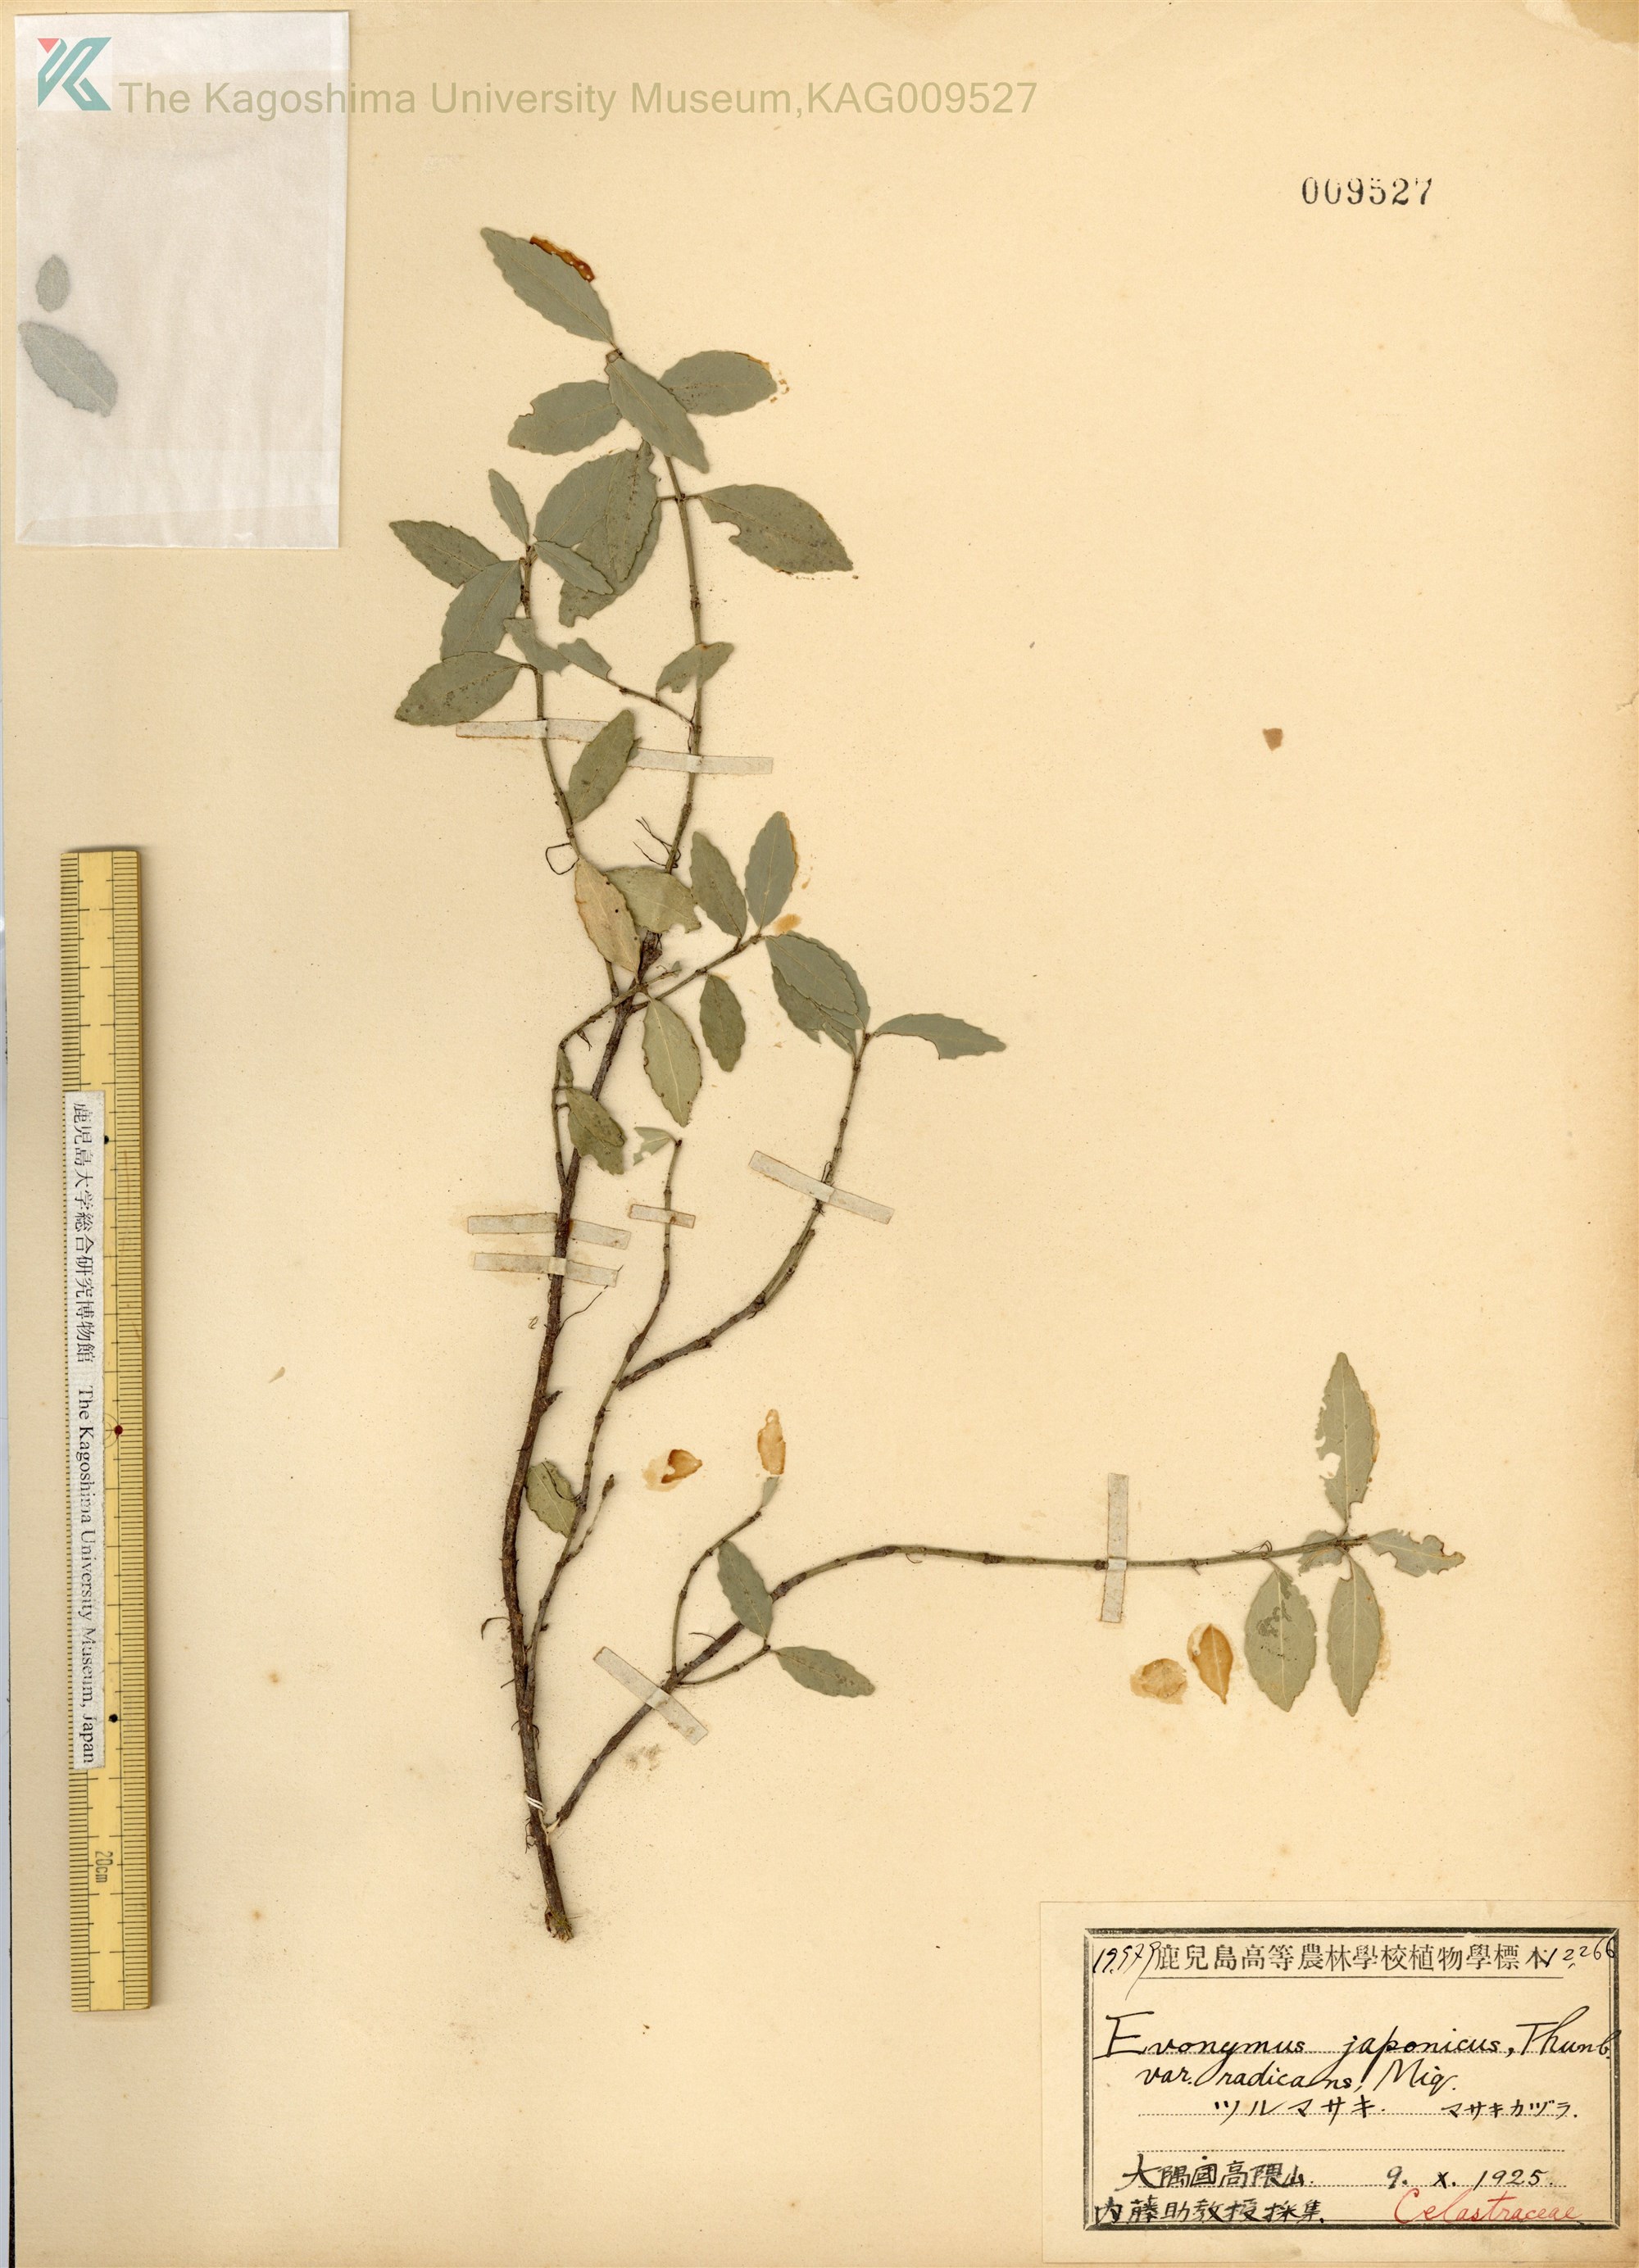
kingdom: Plantae
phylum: Tracheophyta
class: Magnoliopsida
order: Celastrales
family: Celastraceae
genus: Euonymus
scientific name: Euonymus fortunei
